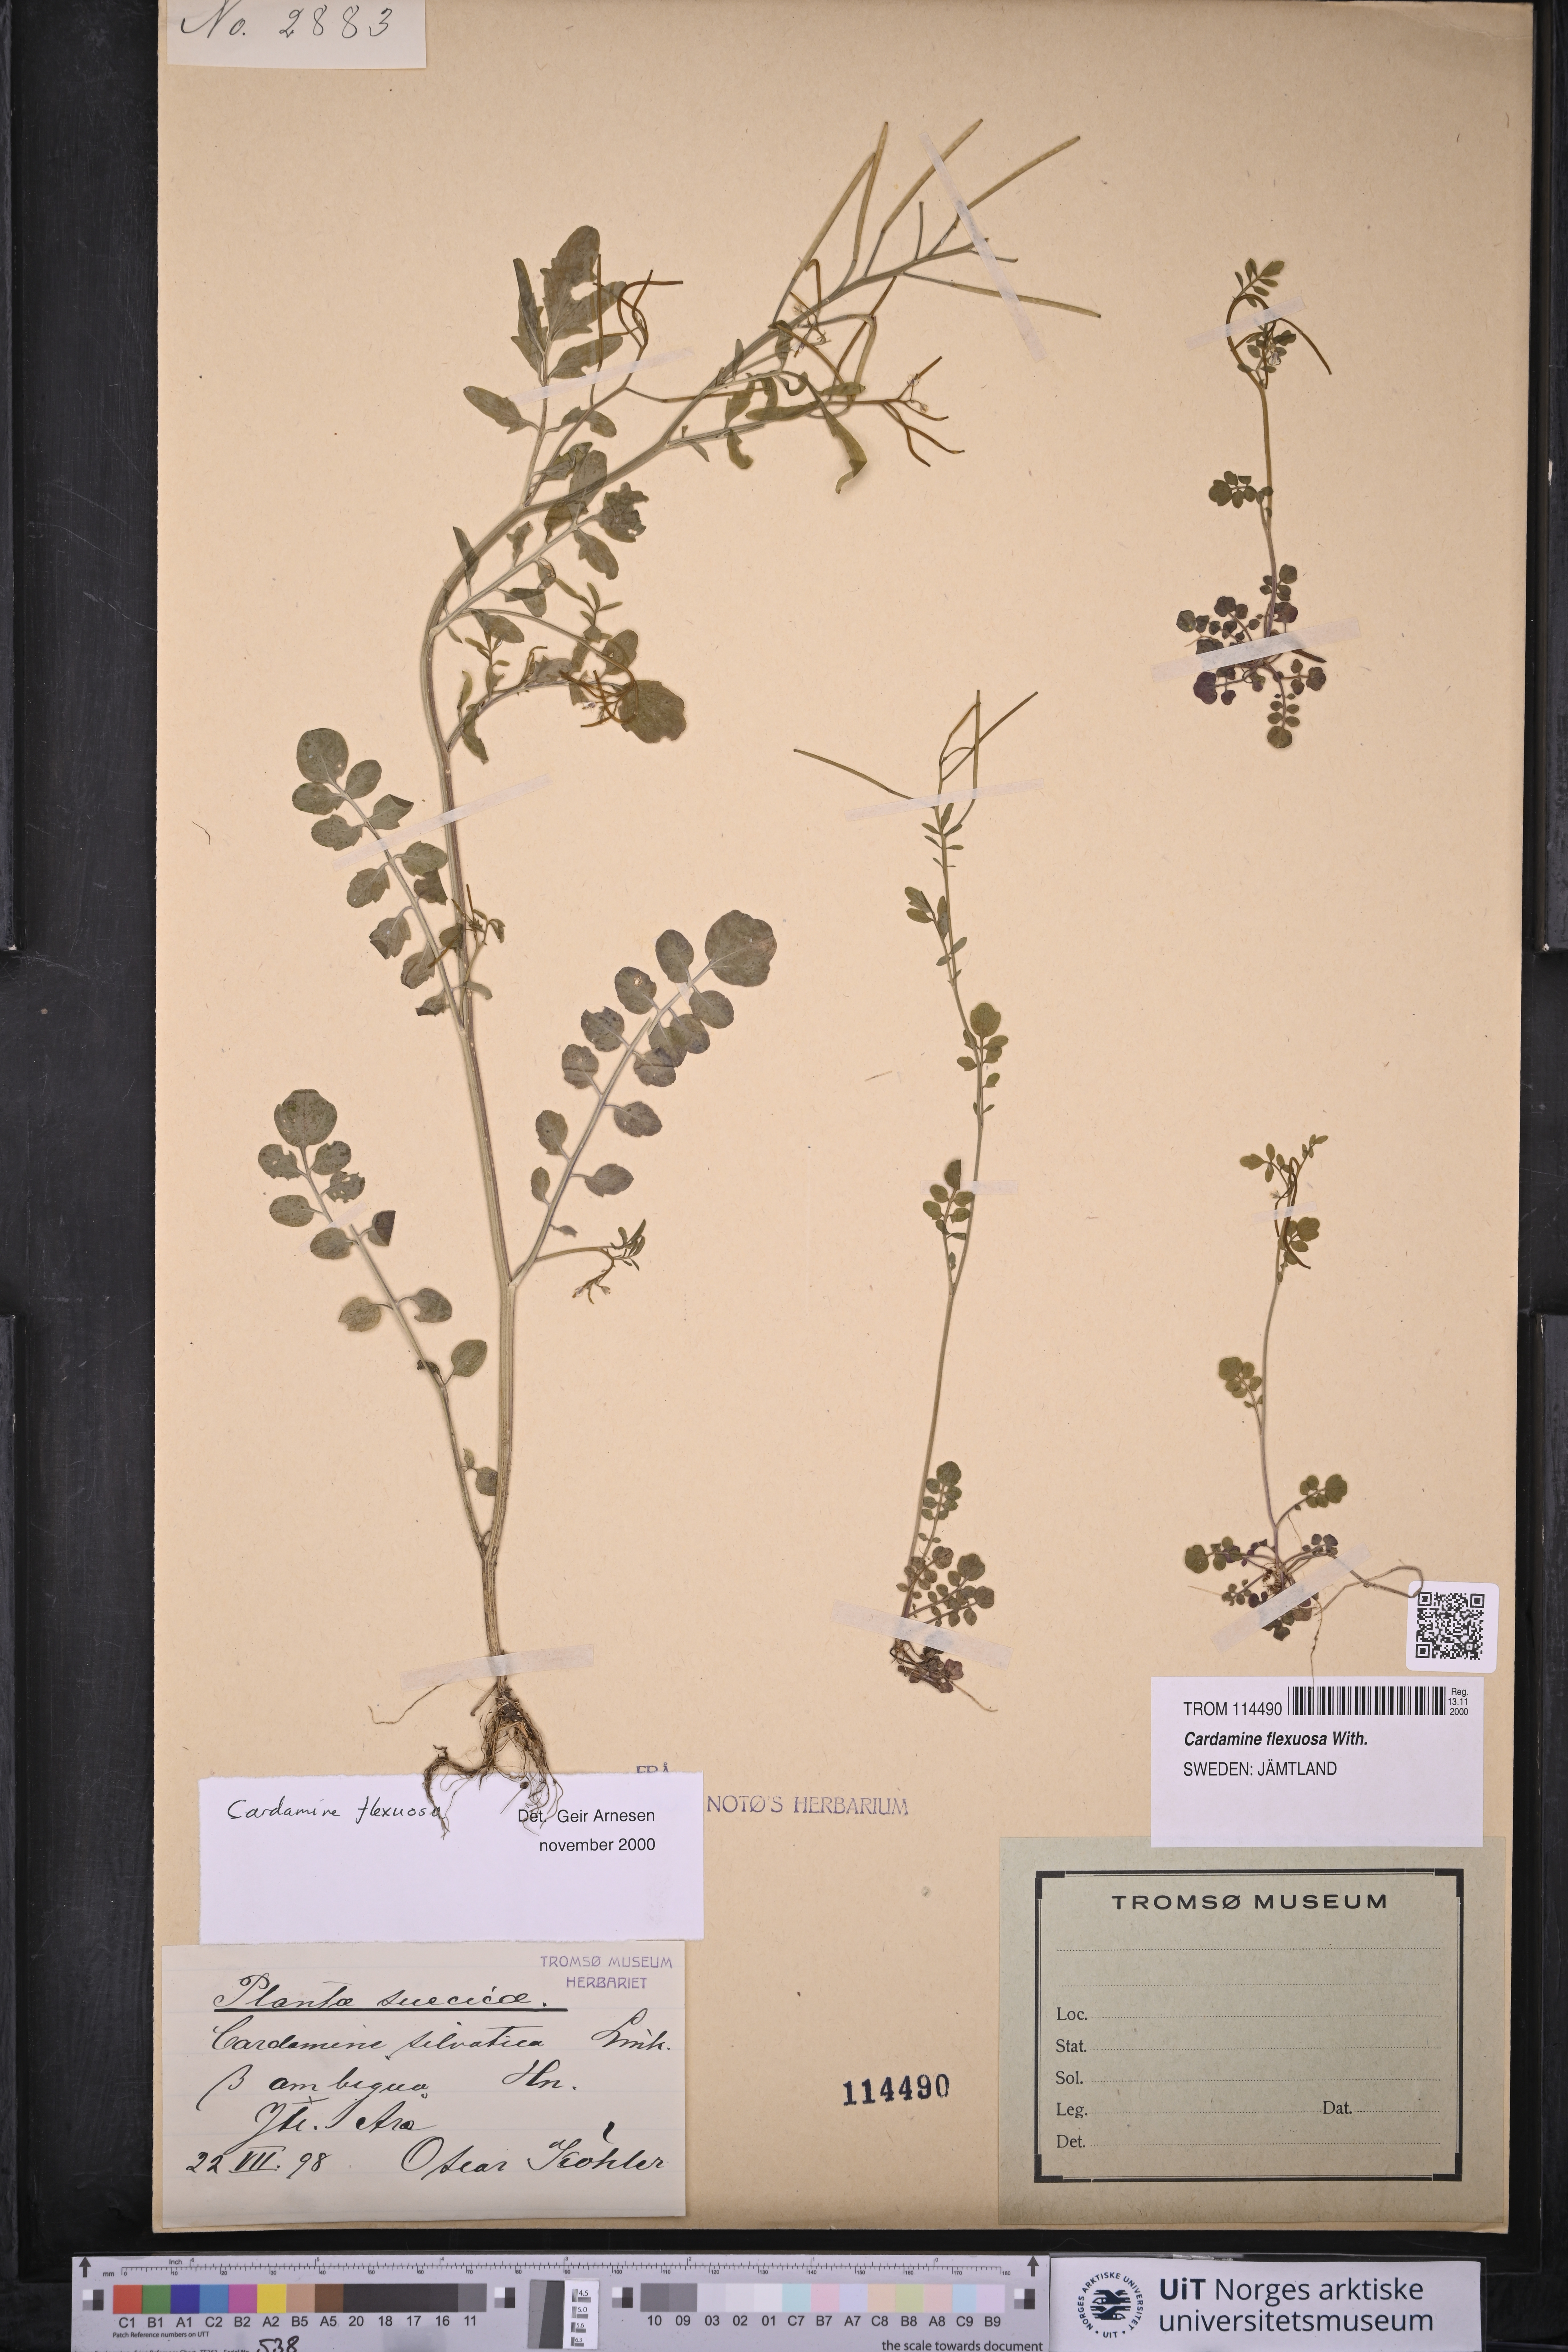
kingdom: Plantae
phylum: Tracheophyta
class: Magnoliopsida
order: Brassicales
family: Brassicaceae
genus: Cardamine
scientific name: Cardamine flexuosa
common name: Woodland bittercress
